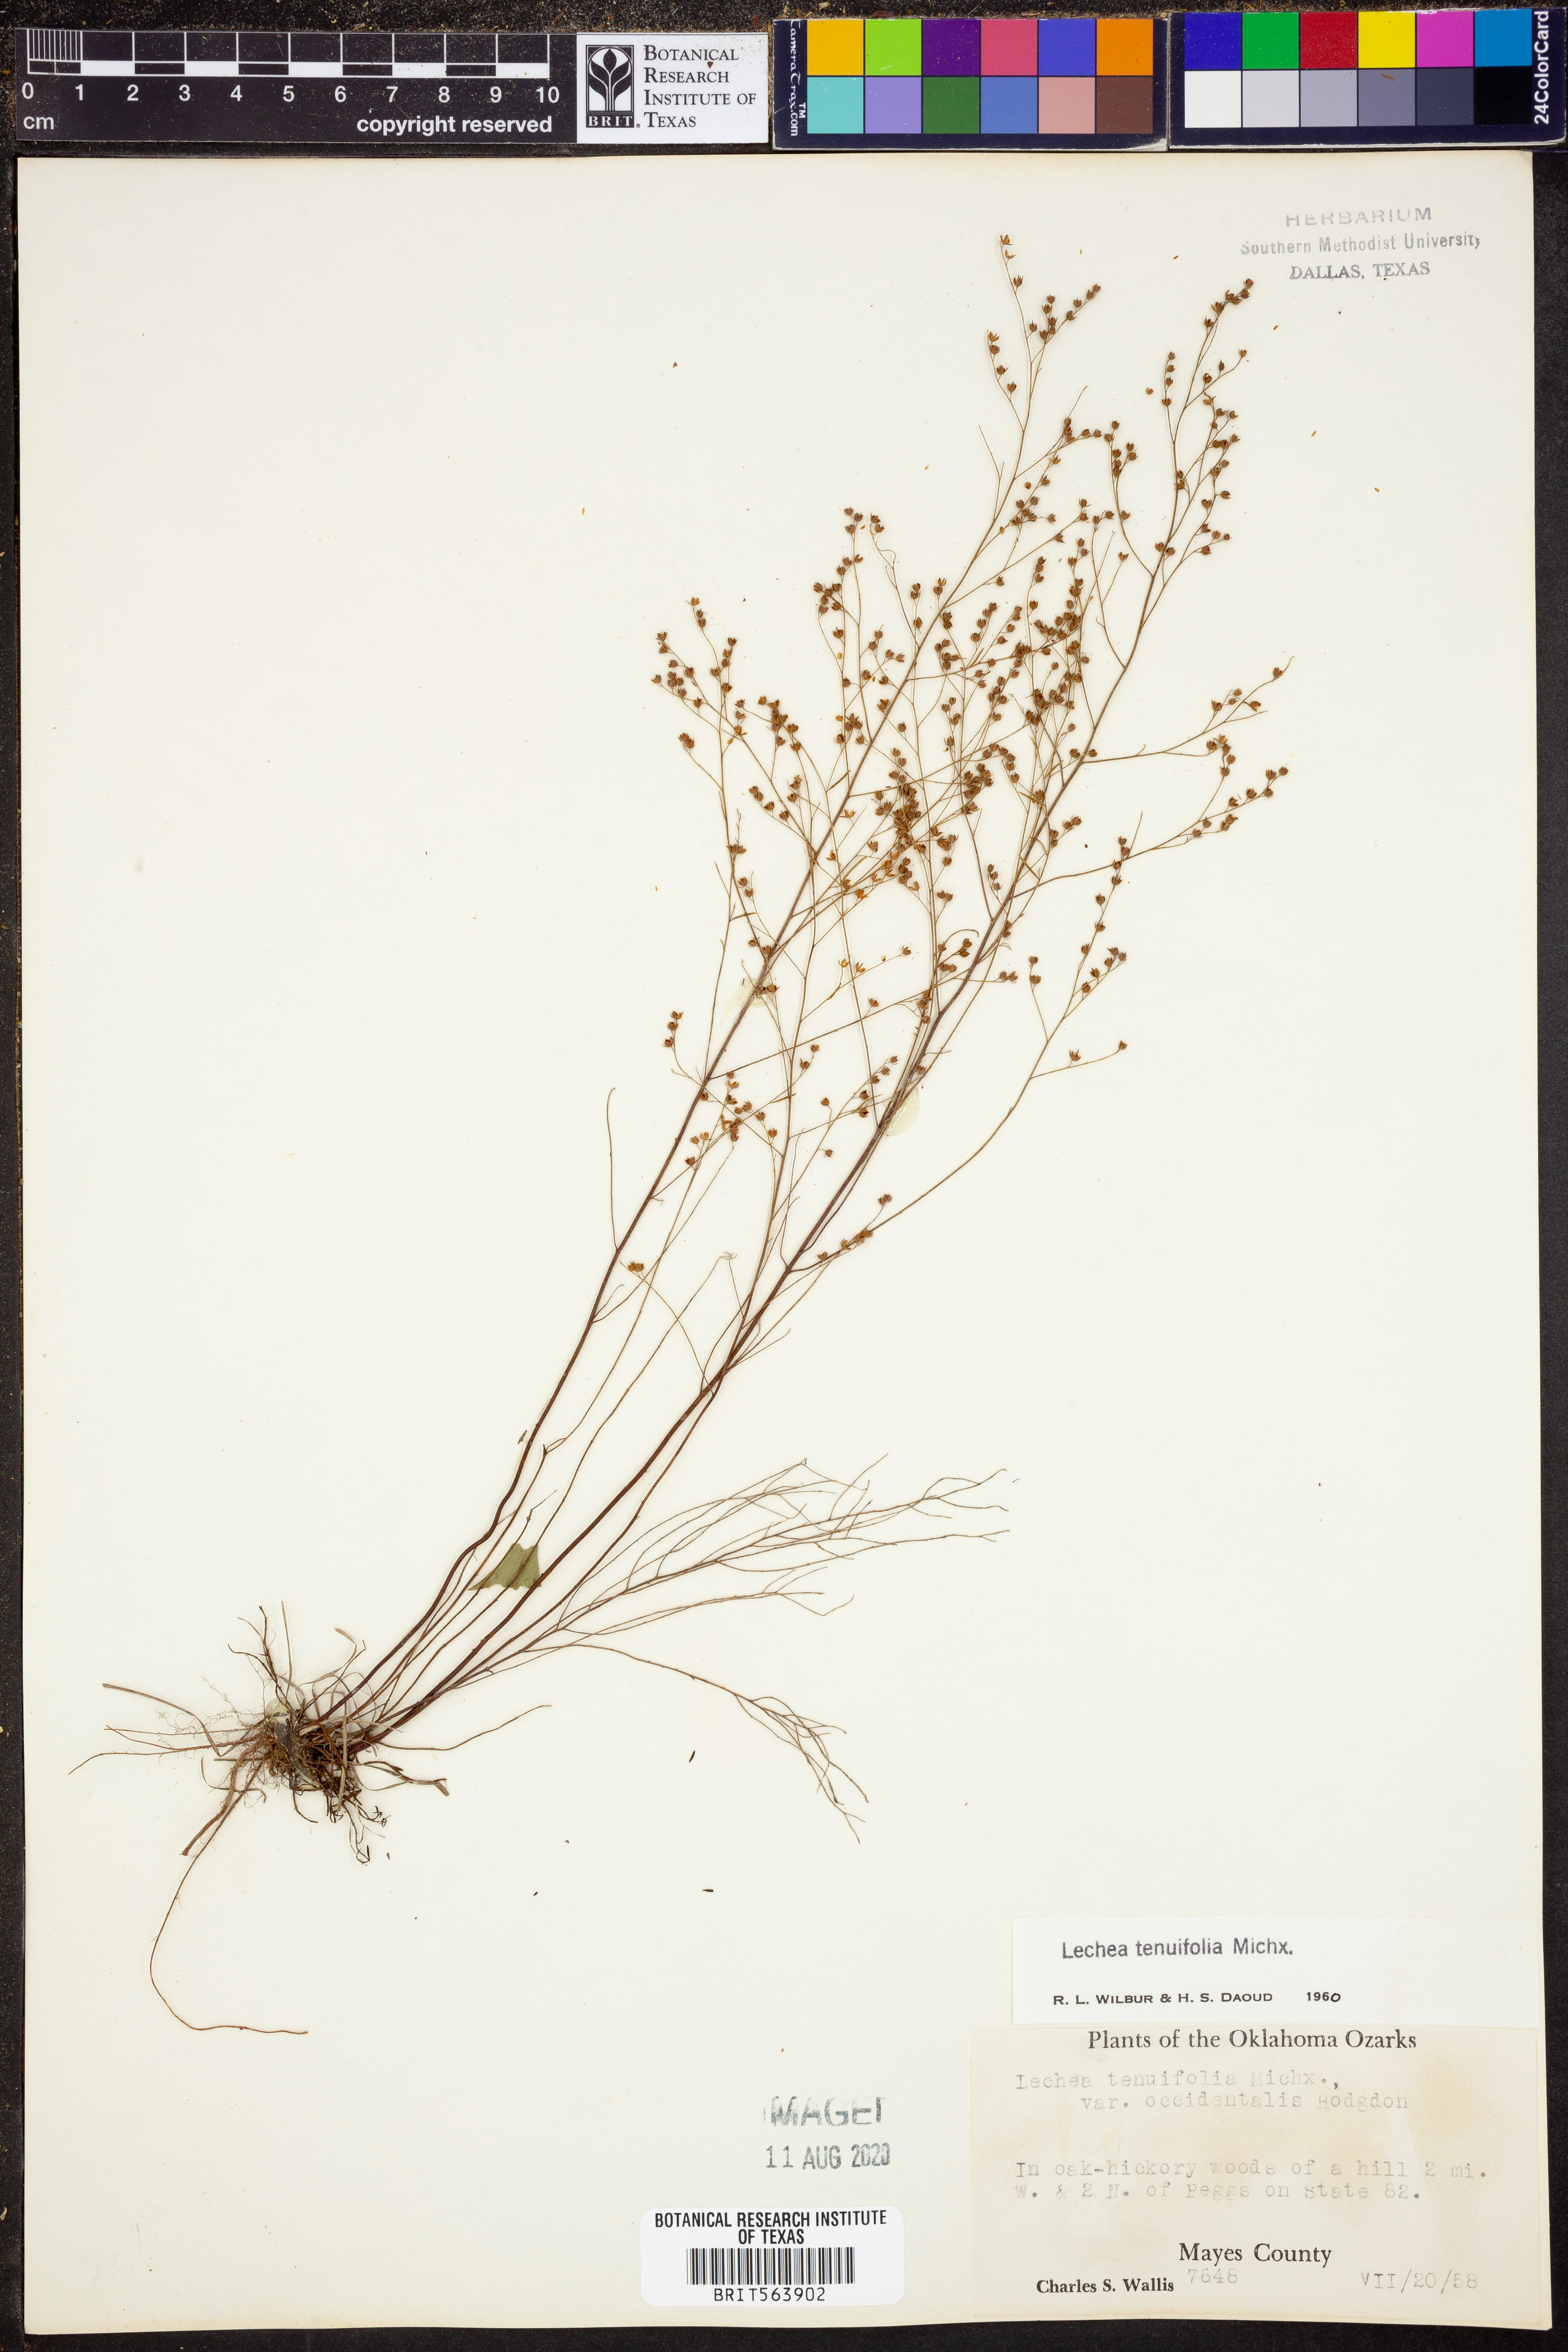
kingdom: Plantae
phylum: Tracheophyta
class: Magnoliopsida
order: Malvales
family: Cistaceae
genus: Lechea
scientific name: Lechea tenuifolia
